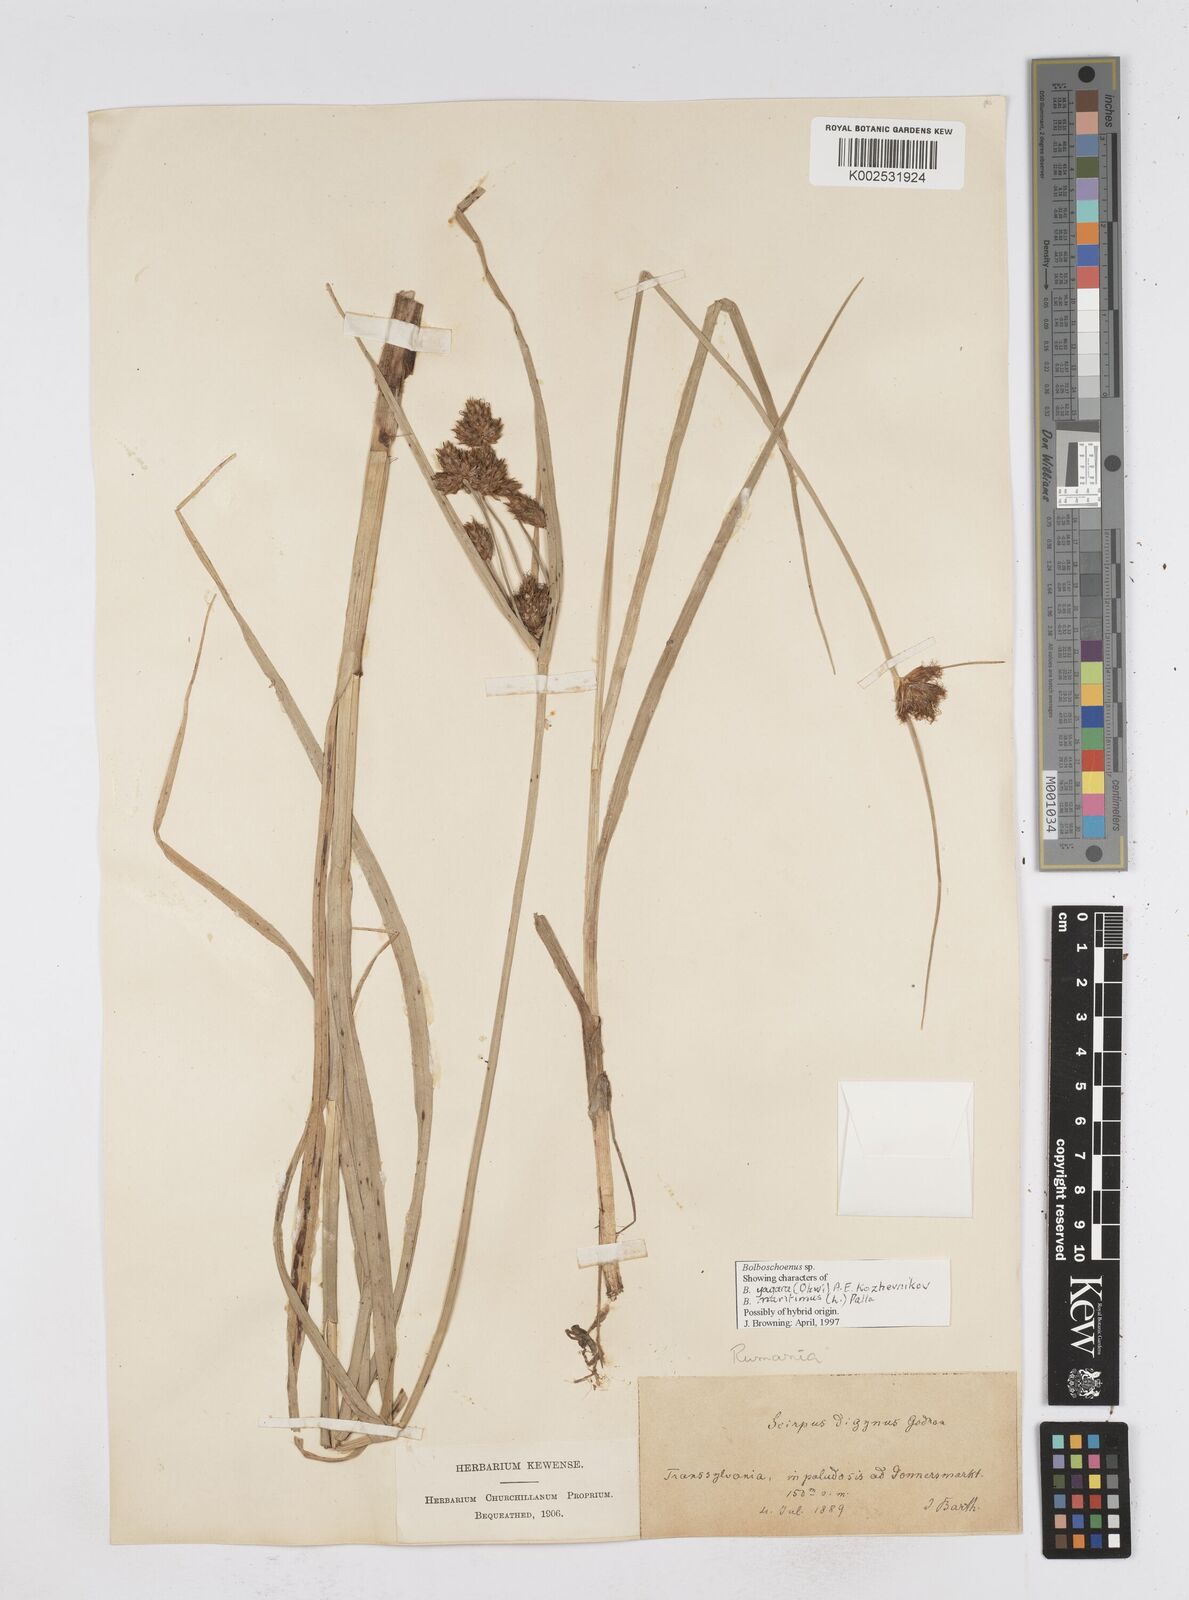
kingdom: Plantae
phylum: Tracheophyta
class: Liliopsida
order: Poales
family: Cyperaceae
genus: Bolboschoenus
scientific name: Bolboschoenus maritimus
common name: Sea club-rush
